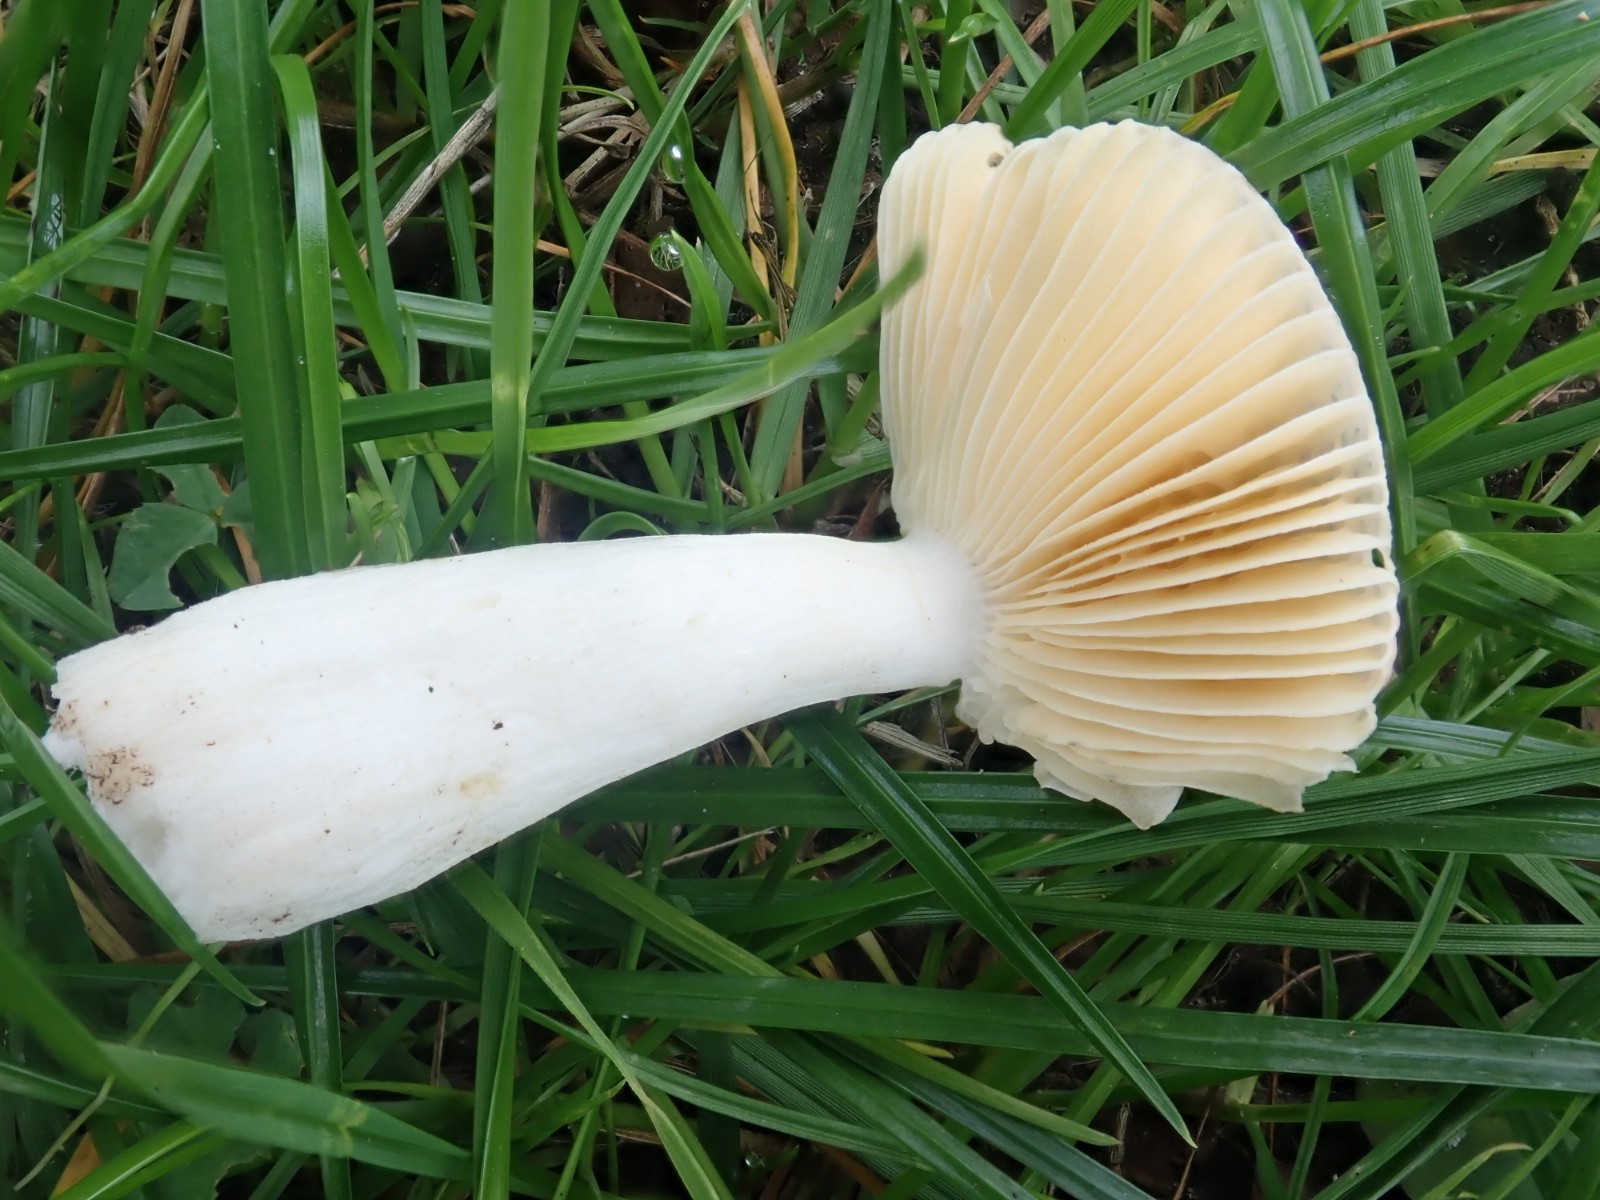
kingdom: Fungi
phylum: Basidiomycota
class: Agaricomycetes
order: Russulales
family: Russulaceae
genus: Russula
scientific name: Russula risigallina
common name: abrikos-skørhat
